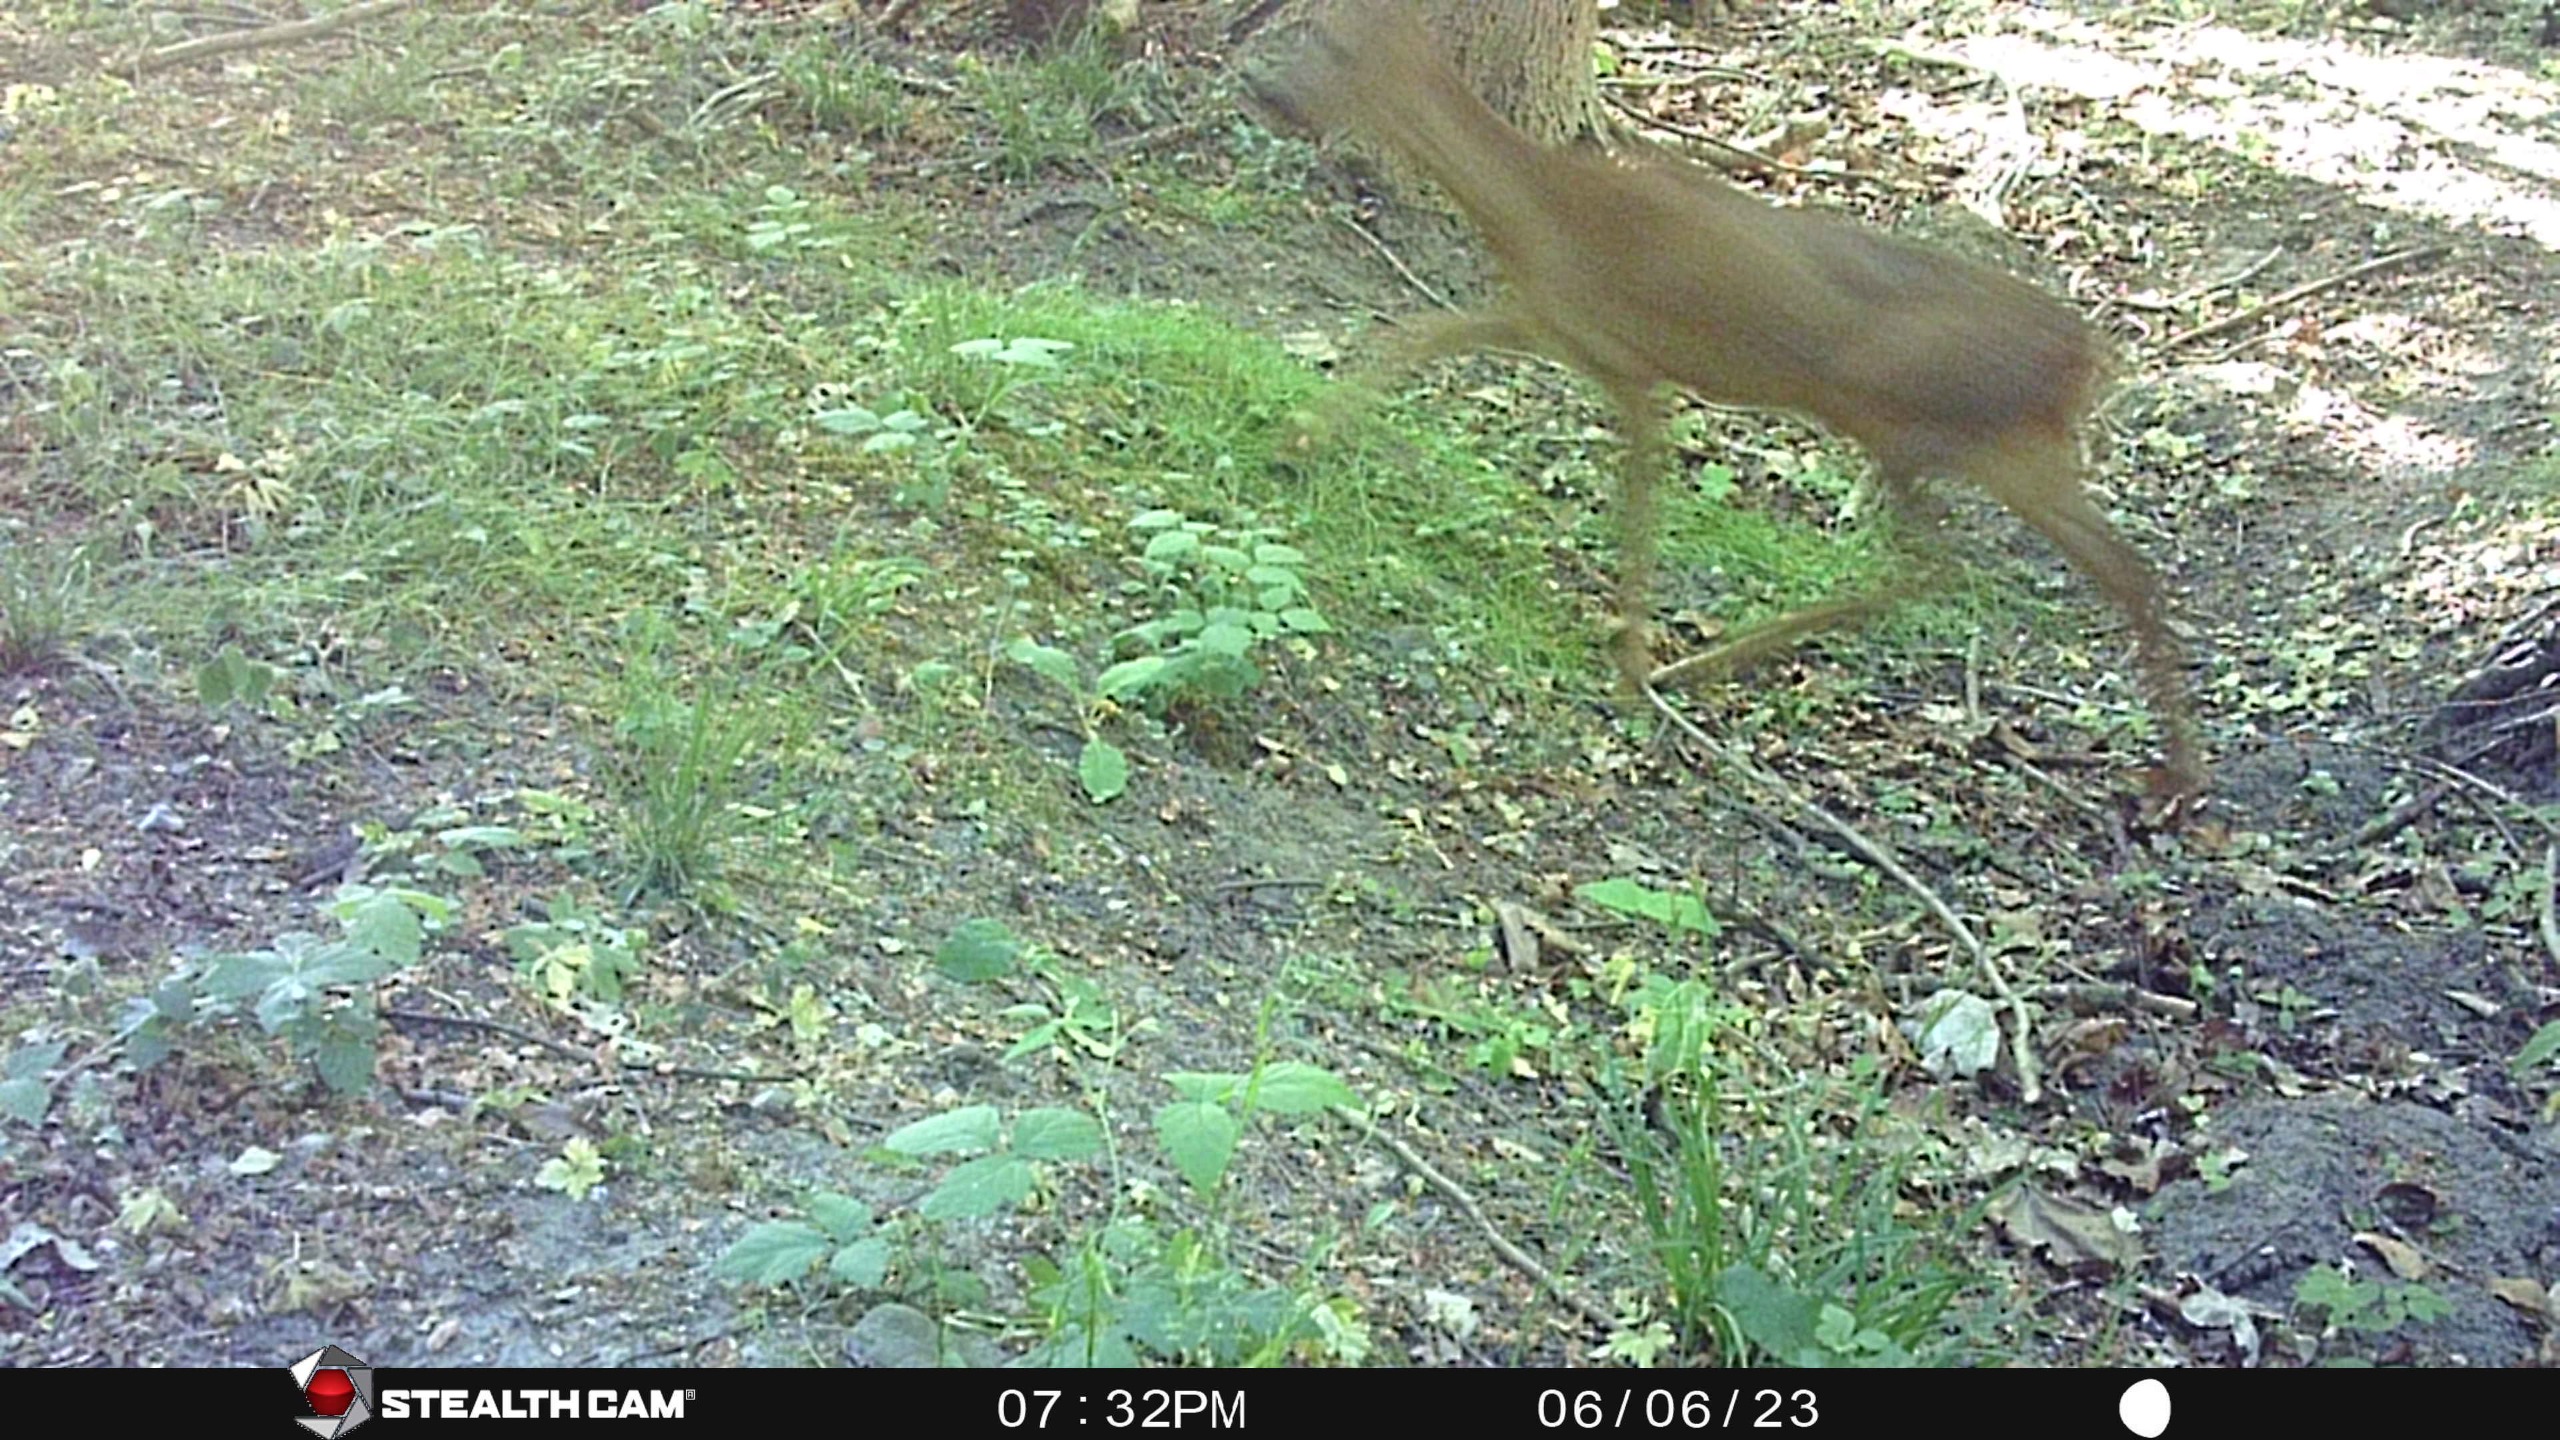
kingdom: Animalia
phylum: Chordata
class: Mammalia
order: Artiodactyla
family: Cervidae
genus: Capreolus
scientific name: Capreolus capreolus
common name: Rådyr
